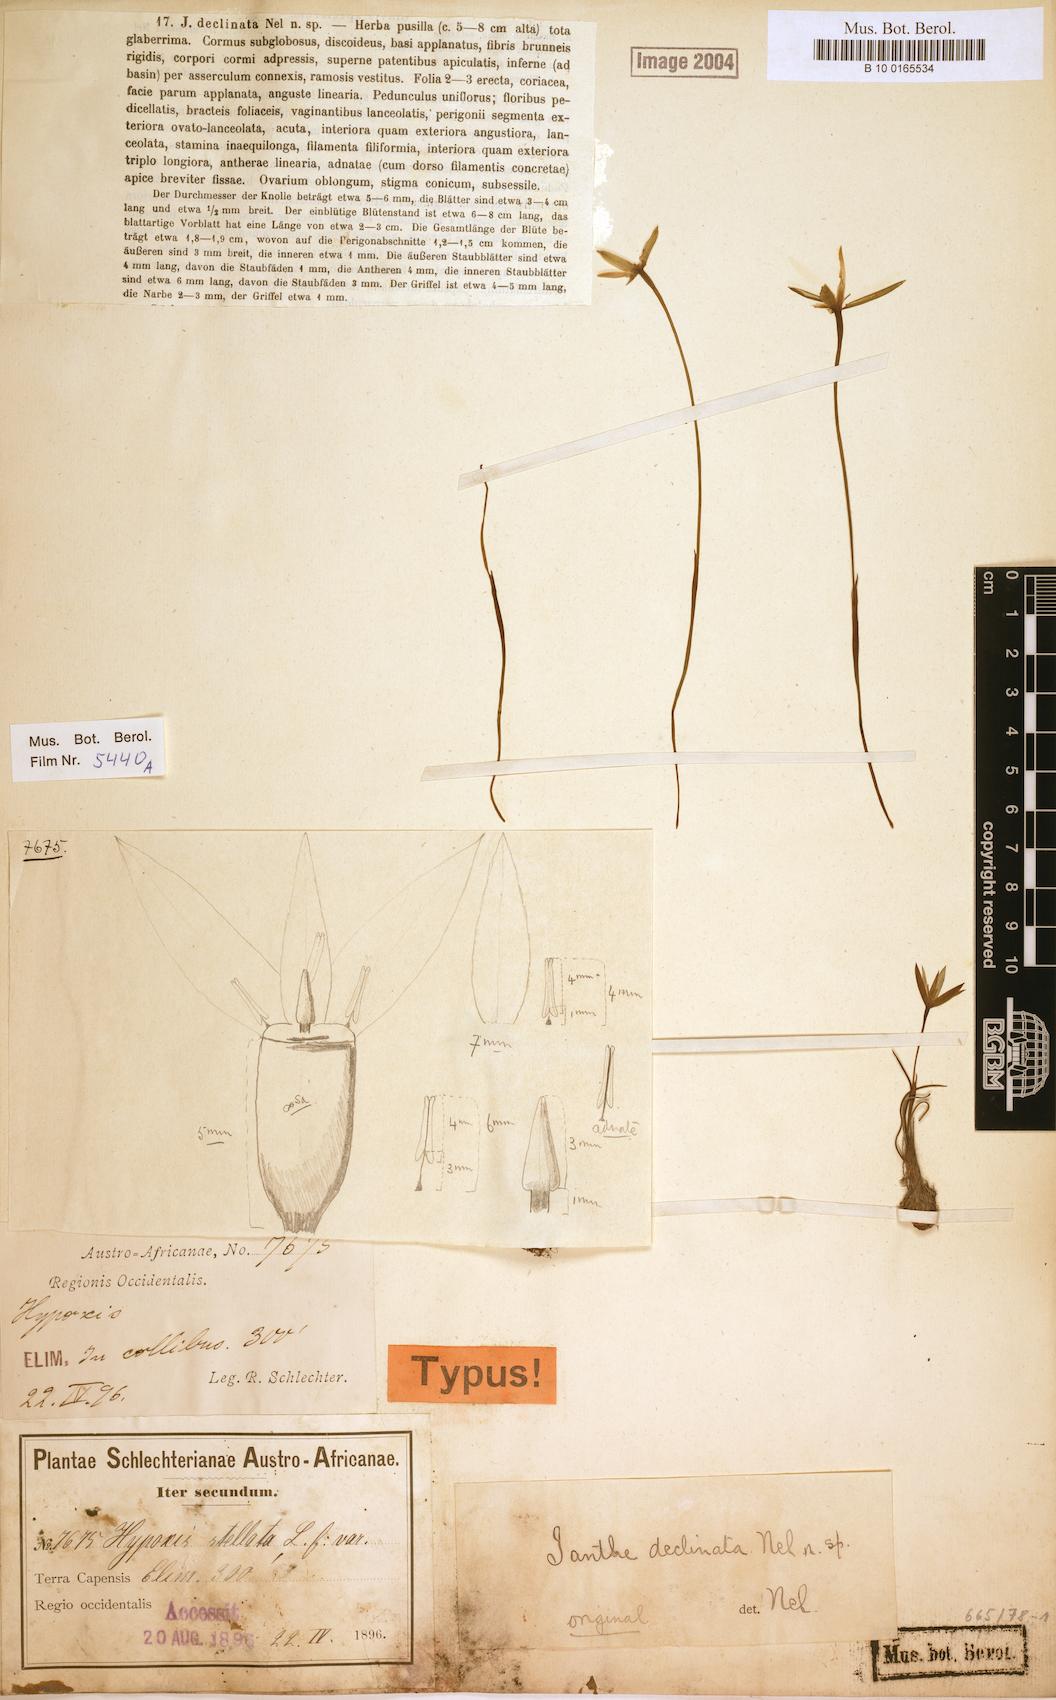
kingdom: Plantae
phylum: Tracheophyta
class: Liliopsida
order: Asparagales
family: Hypoxidaceae
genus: Pauridia
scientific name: Pauridia curculigoides
